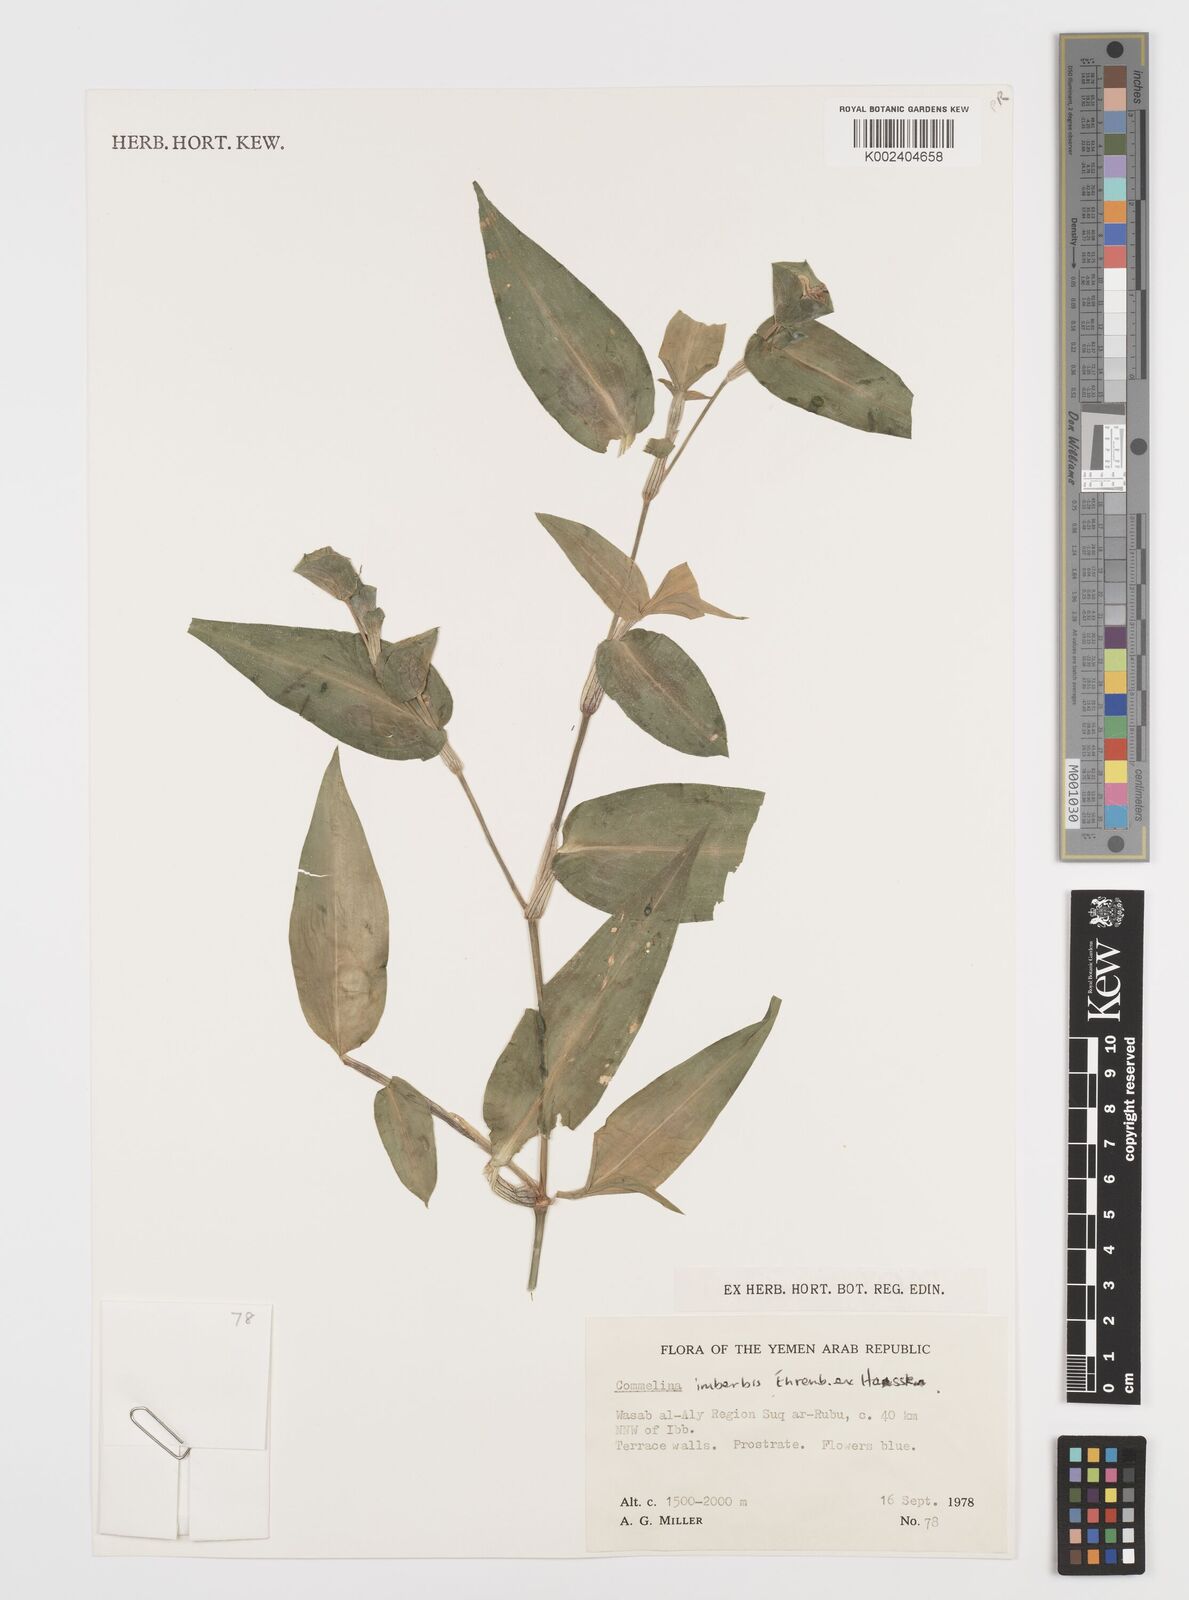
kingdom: Plantae
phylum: Tracheophyta
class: Liliopsida
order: Commelinales
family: Commelinaceae
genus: Commelina
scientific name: Commelina imberbis
